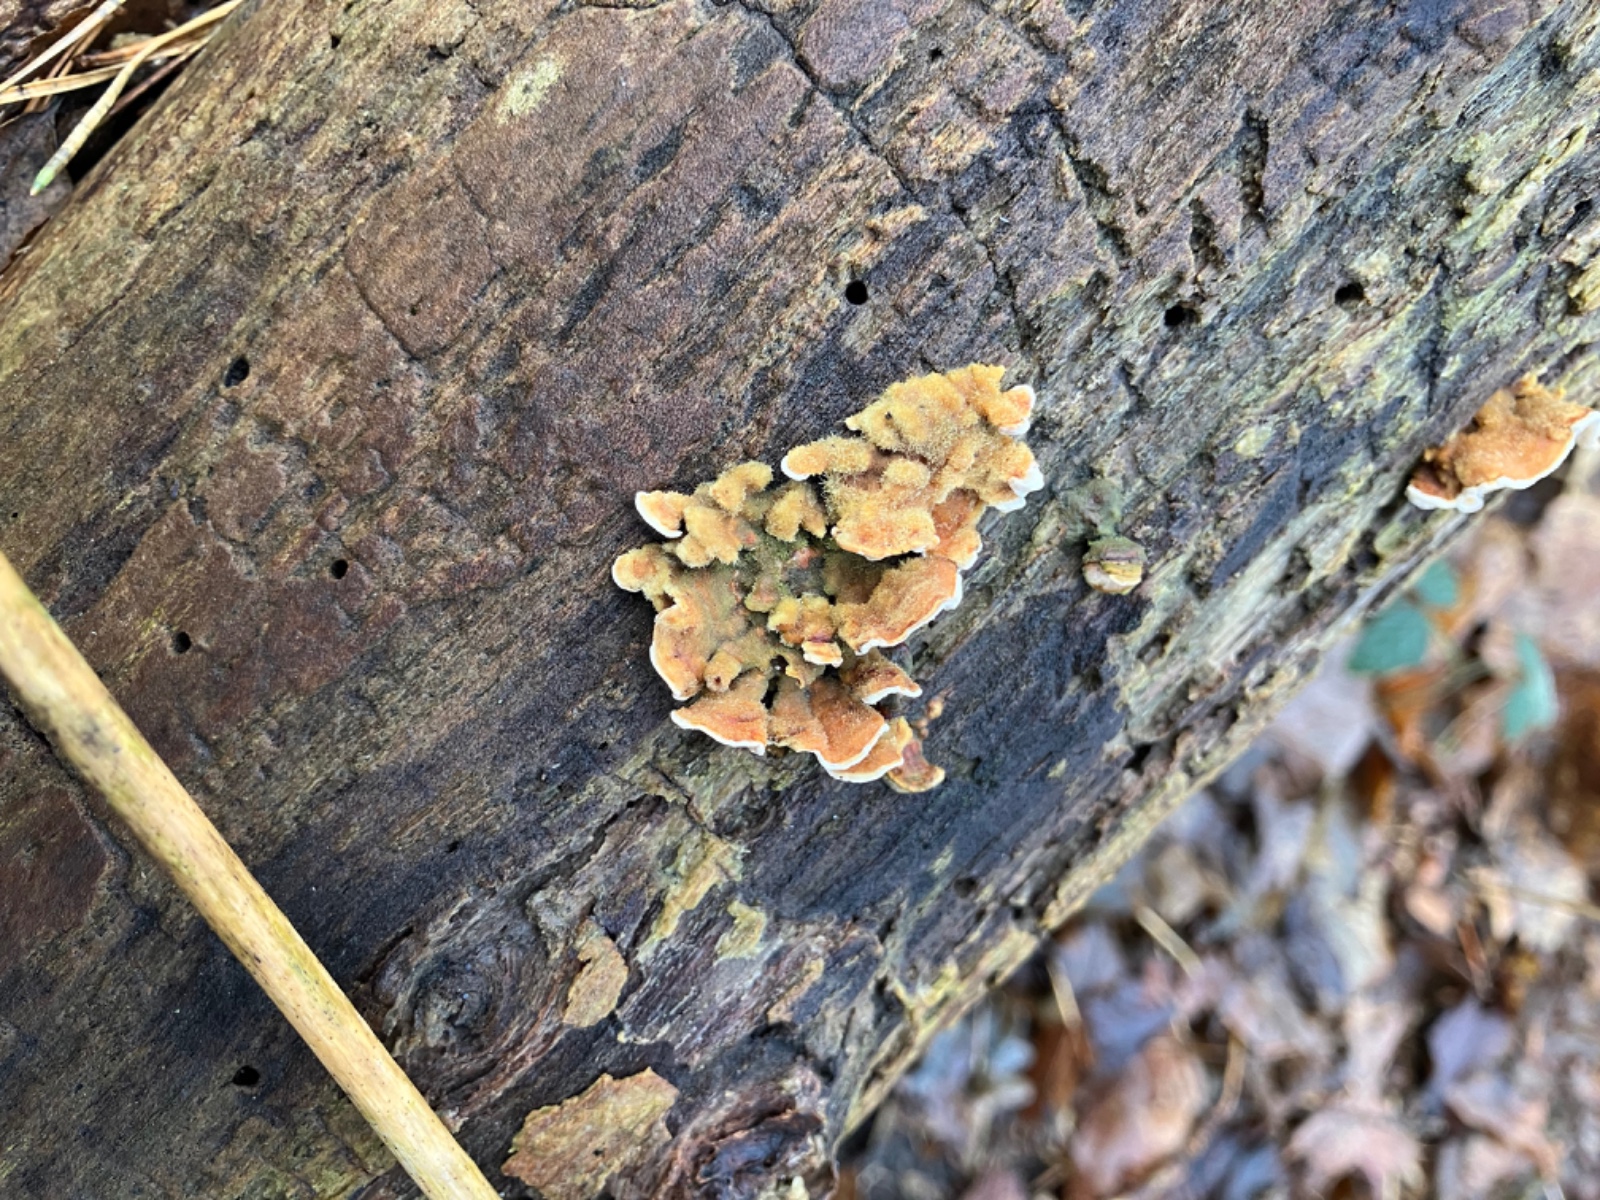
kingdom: Fungi
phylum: Basidiomycota
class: Agaricomycetes
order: Russulales
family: Stereaceae
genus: Stereum
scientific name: Stereum hirsutum
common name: håret lædersvamp
